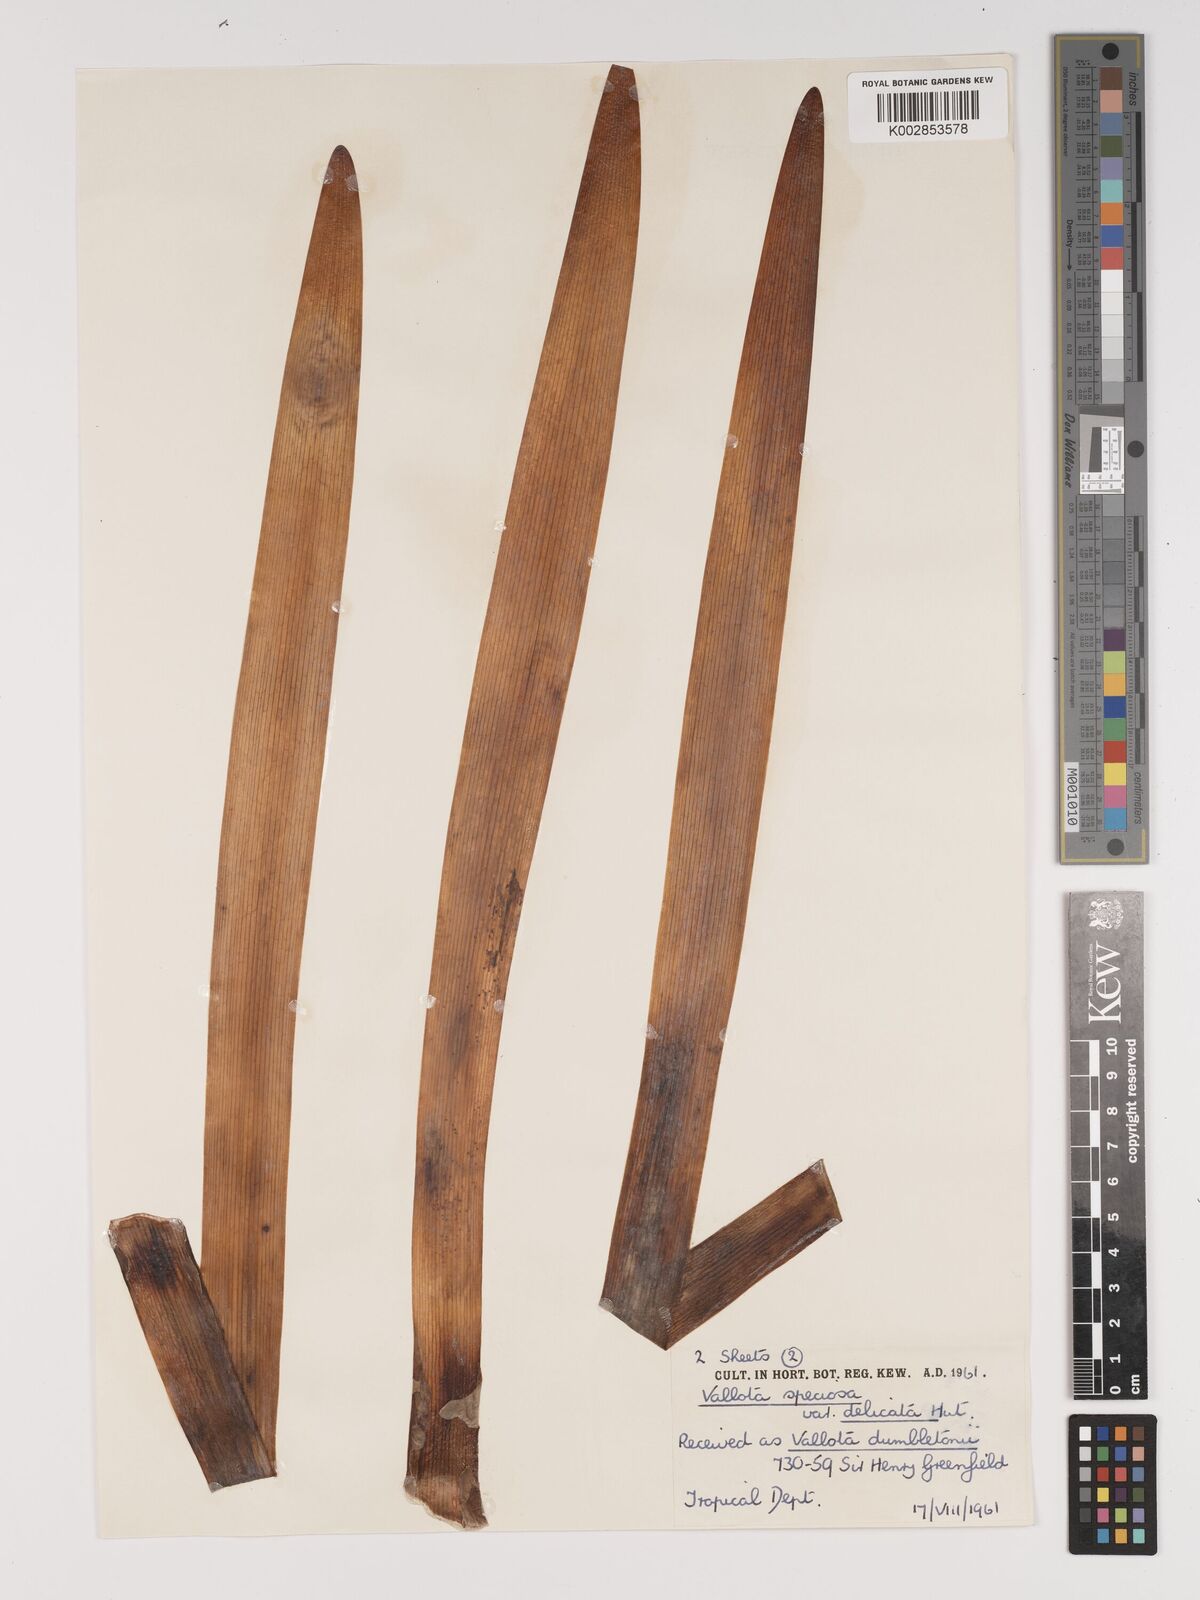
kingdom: Plantae
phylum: Tracheophyta
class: Liliopsida
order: Asparagales
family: Amaryllidaceae
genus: Cyrtanthus
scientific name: Cyrtanthus elatus
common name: Scarborough-lily
